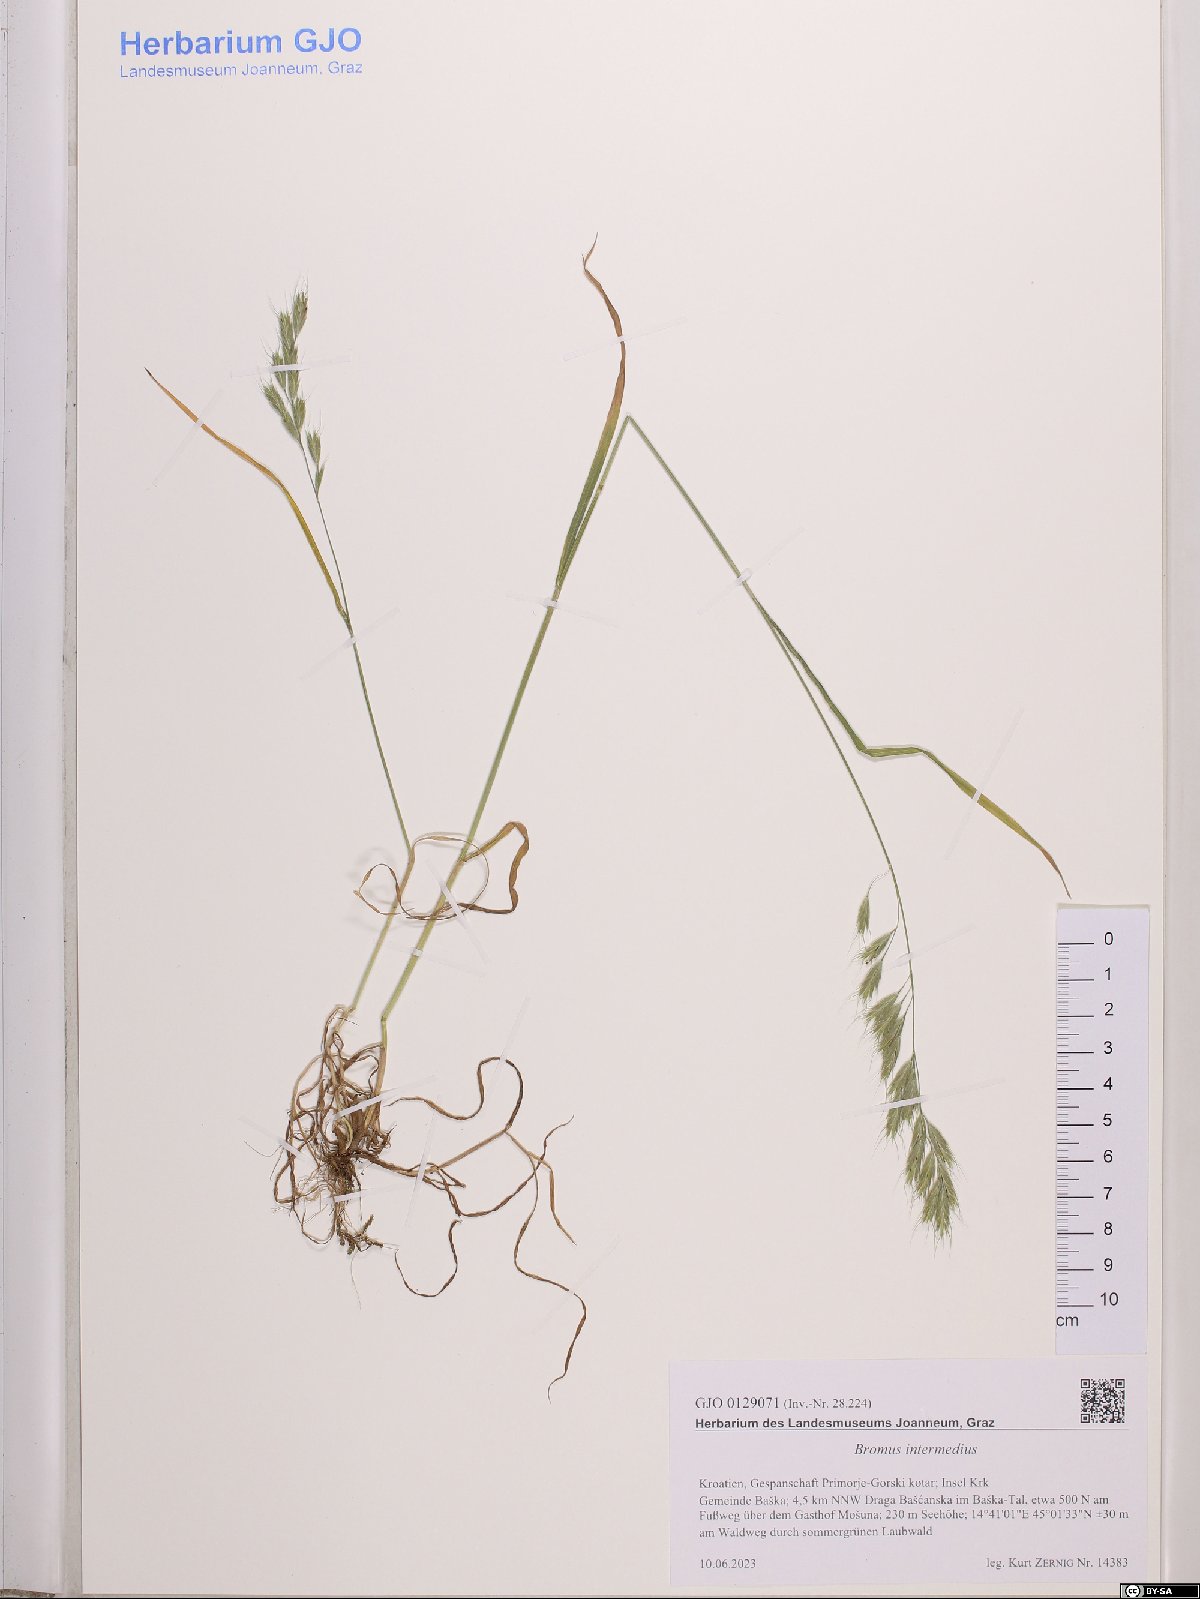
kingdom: Plantae
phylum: Tracheophyta
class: Liliopsida
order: Poales
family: Poaceae
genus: Bromus
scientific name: Bromus intermedius
